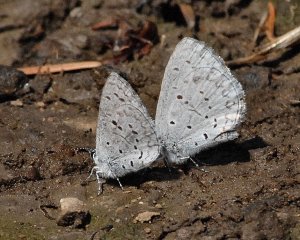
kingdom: Animalia
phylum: Arthropoda
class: Insecta
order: Lepidoptera
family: Lycaenidae
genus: Celastrina
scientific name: Celastrina
